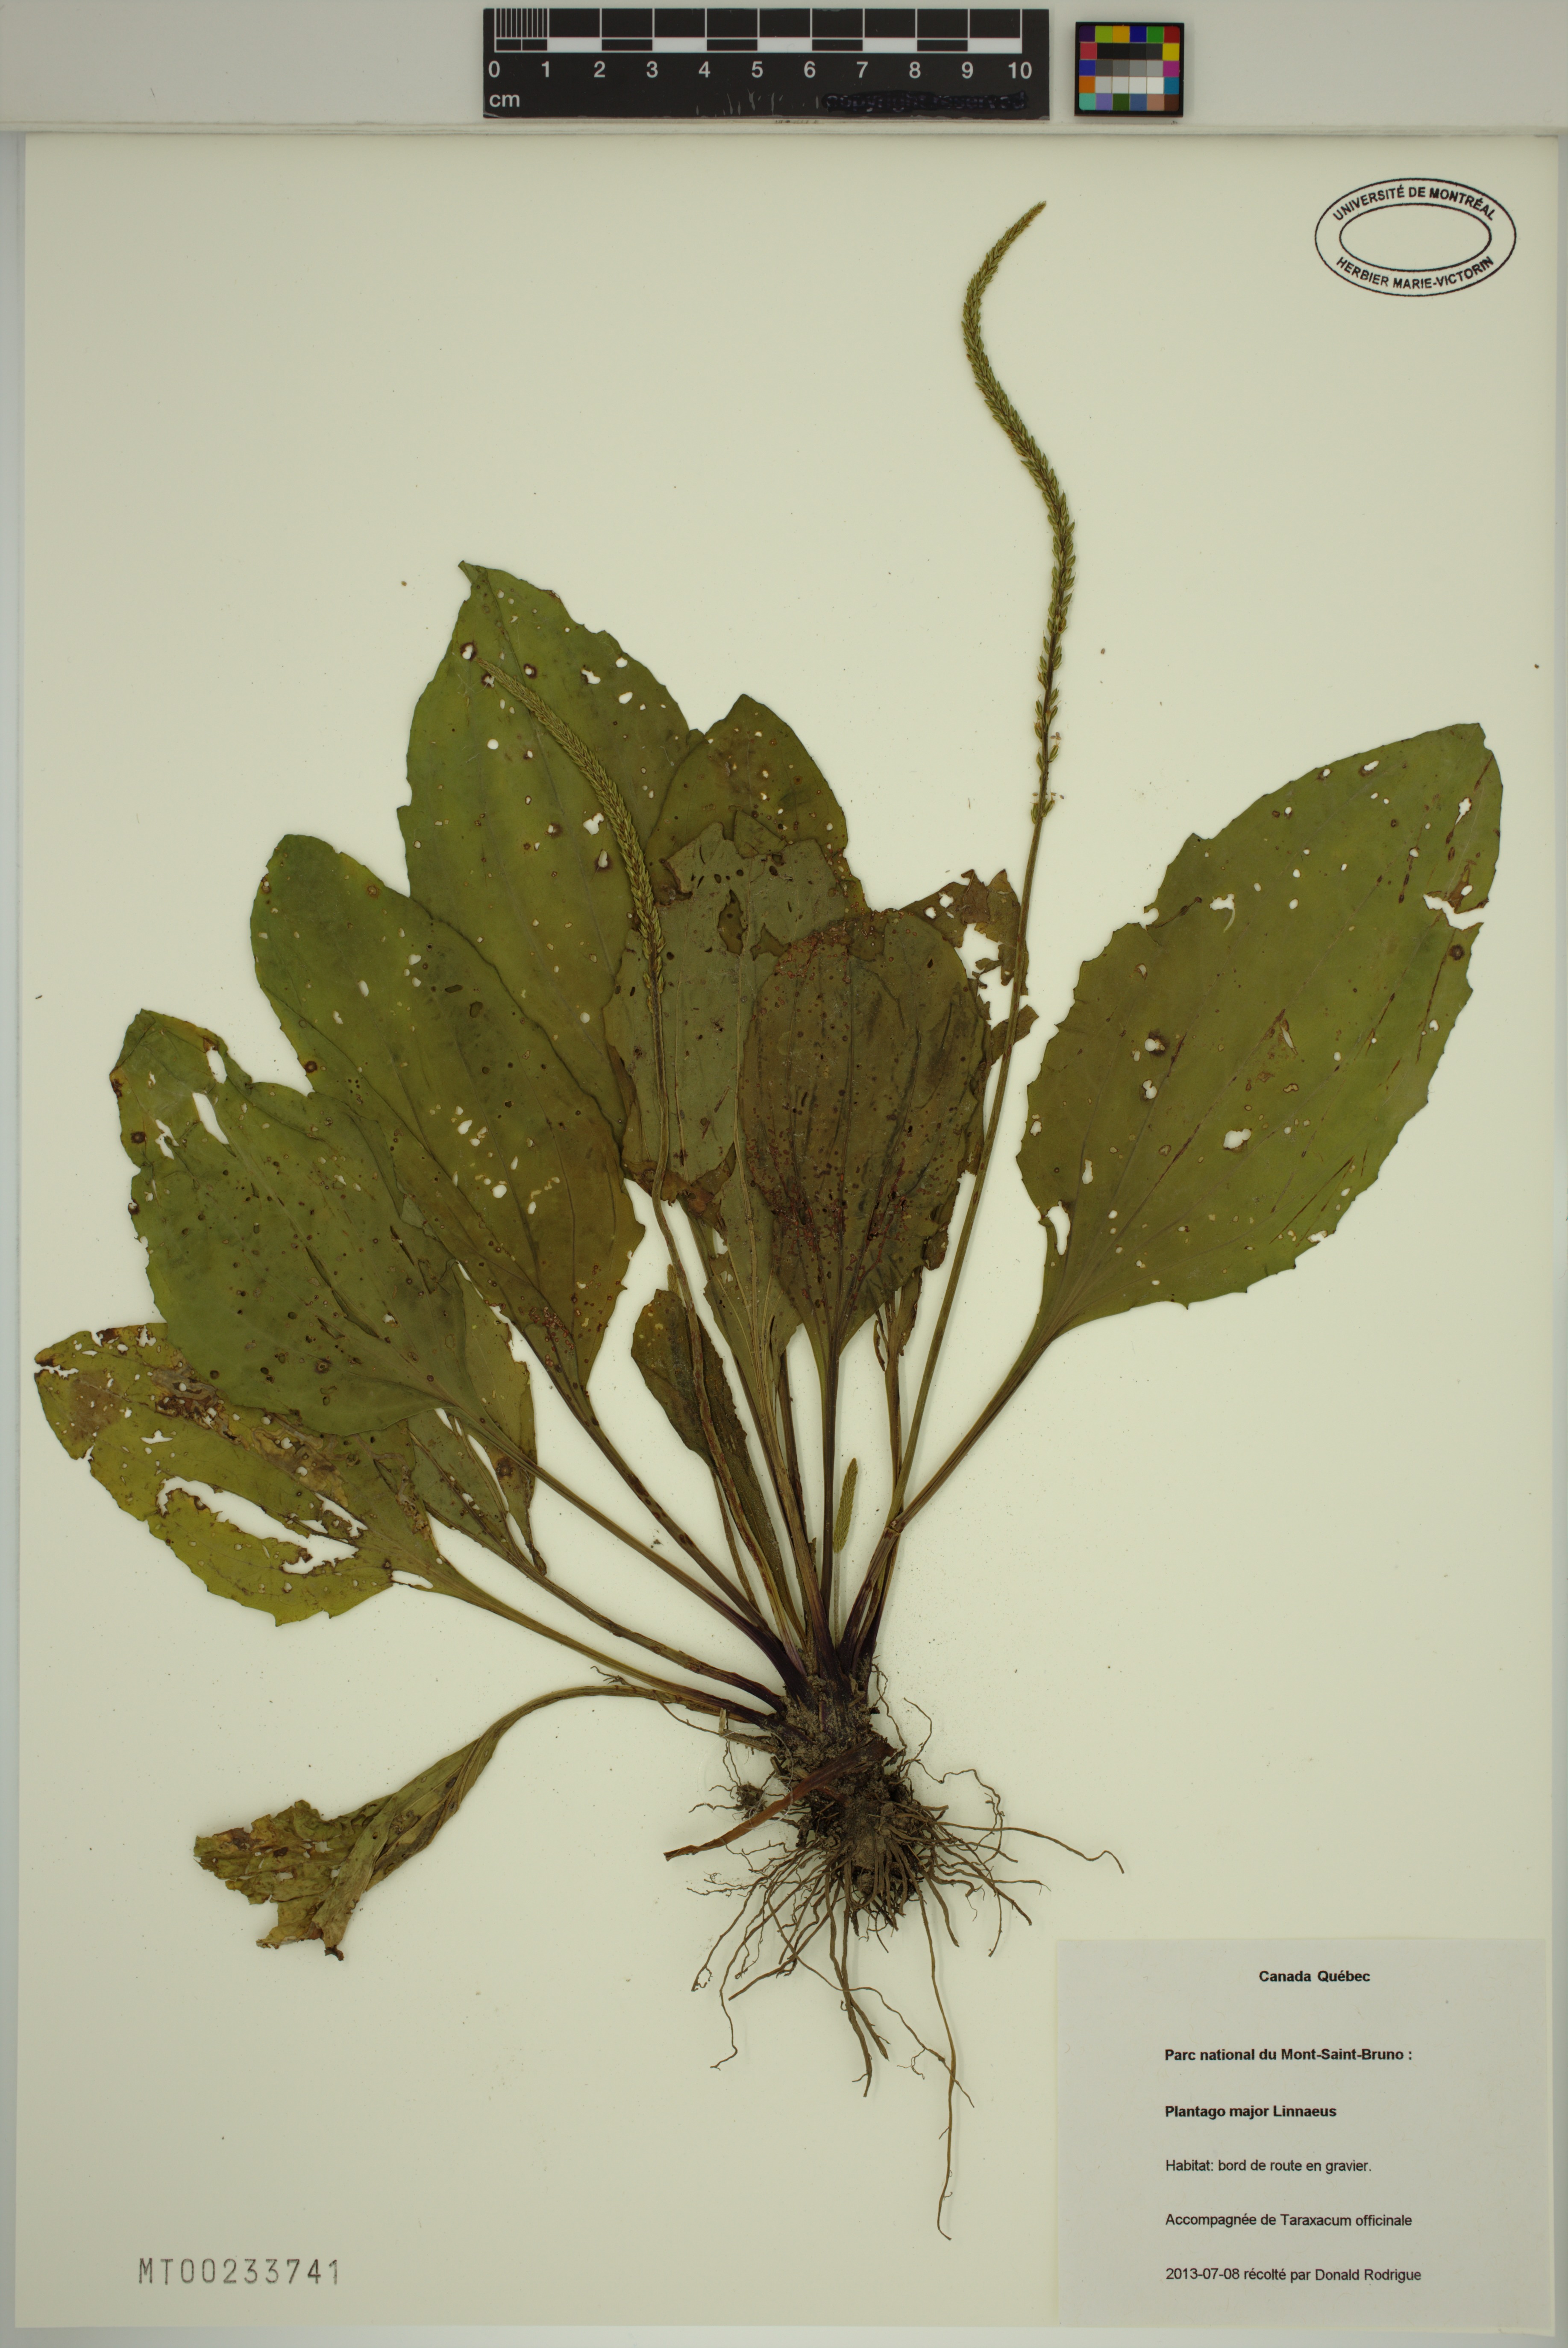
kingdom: Plantae
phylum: Tracheophyta
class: Magnoliopsida
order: Lamiales
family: Plantaginaceae
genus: Plantago
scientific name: Plantago major
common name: Common plantain
